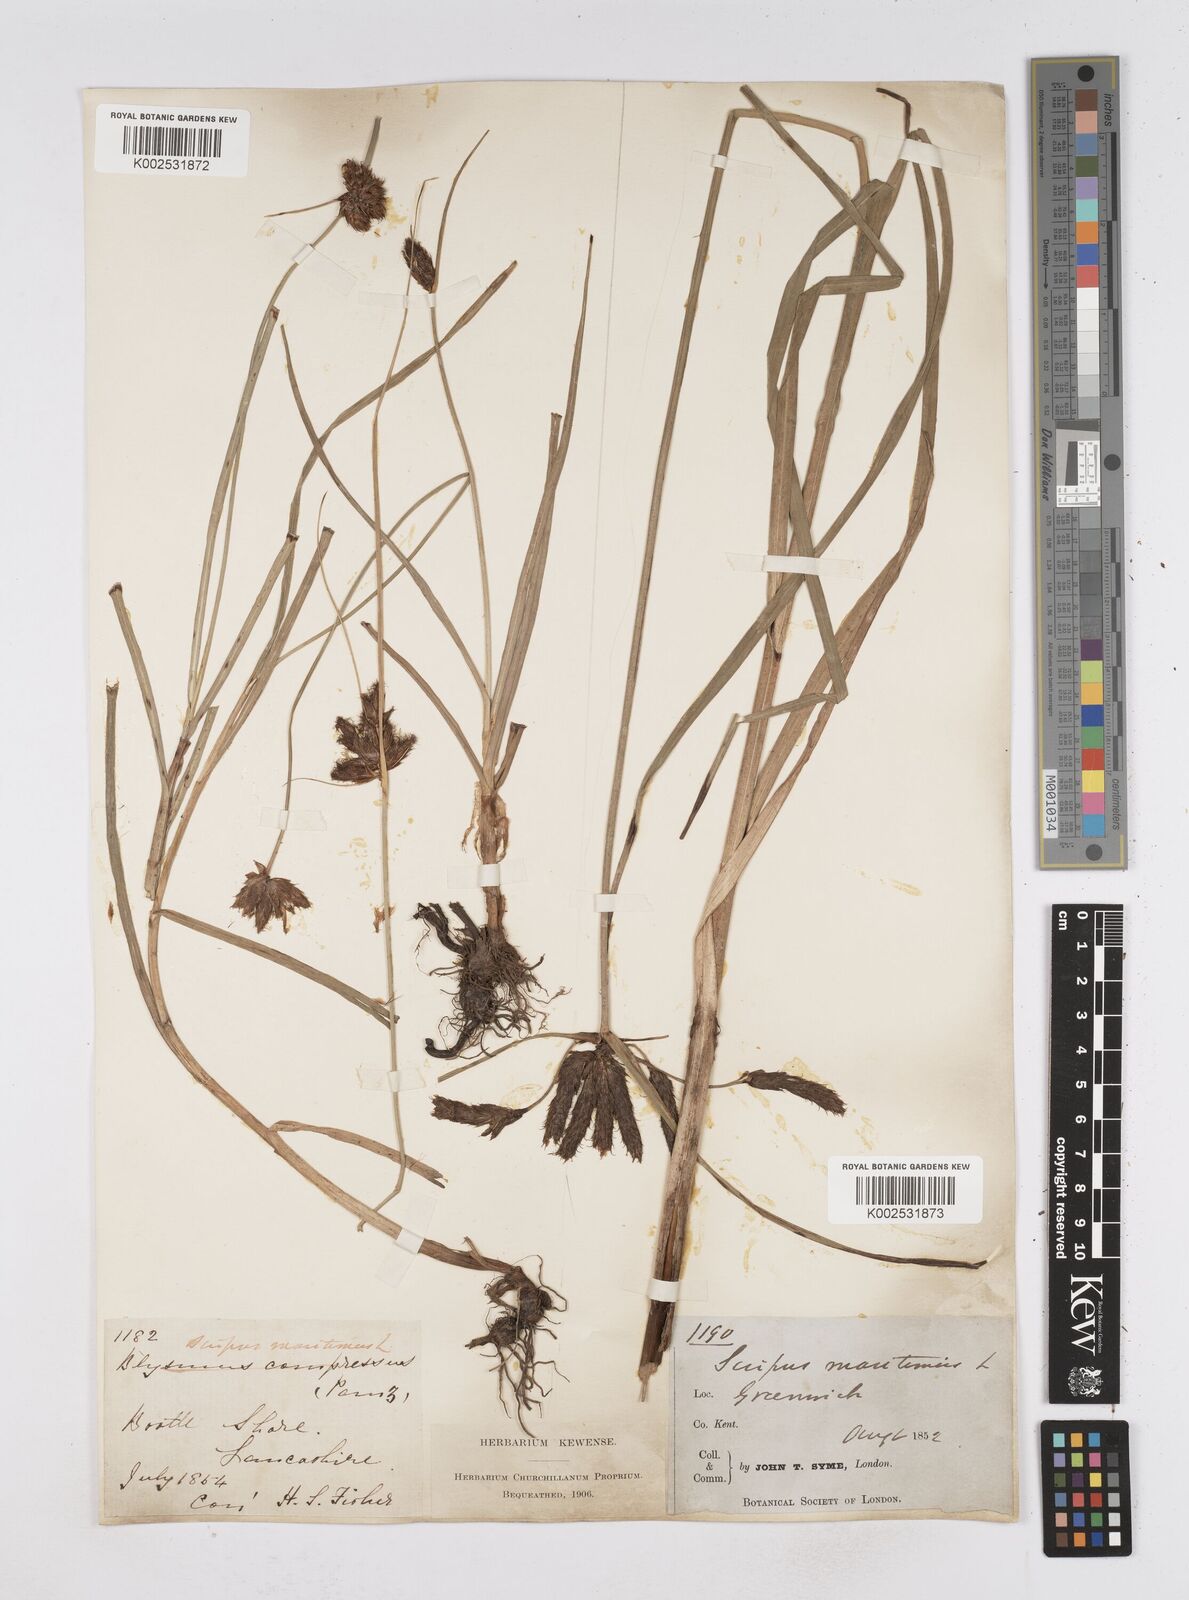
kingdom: Plantae
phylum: Tracheophyta
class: Liliopsida
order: Poales
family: Cyperaceae
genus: Bolboschoenus
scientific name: Bolboschoenus maritimus
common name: Sea club-rush
